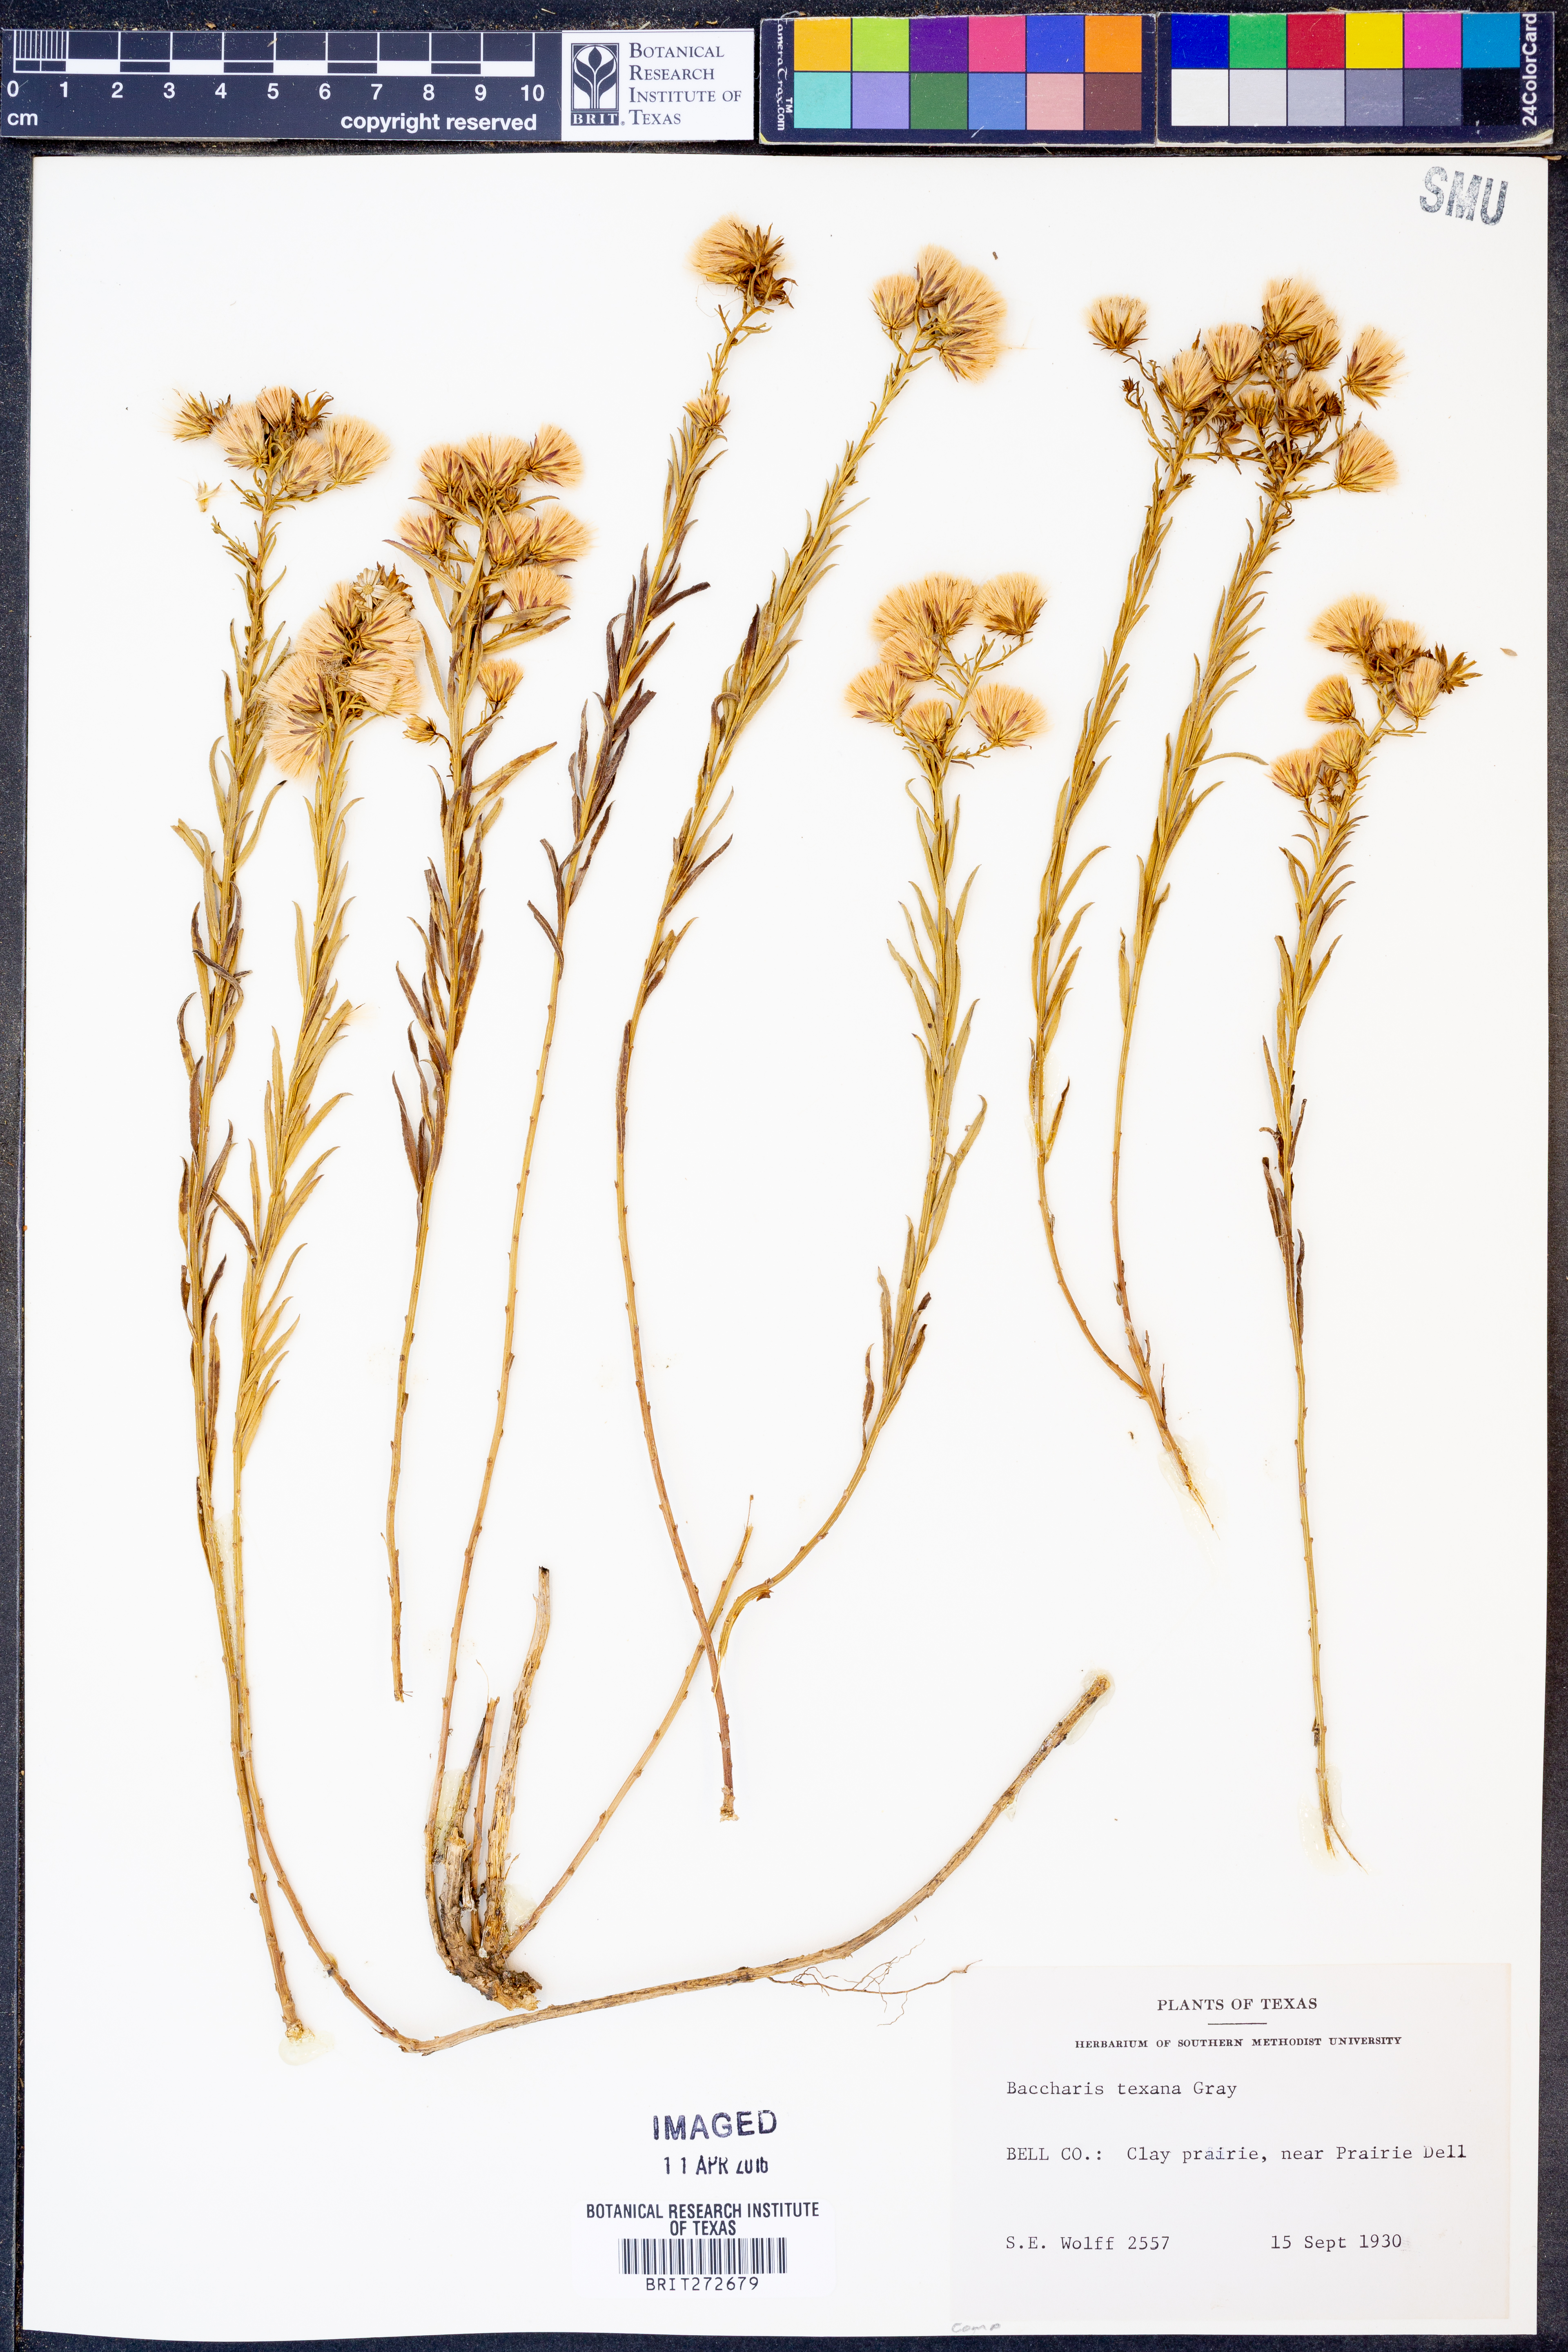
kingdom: Plantae
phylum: Tracheophyta
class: Magnoliopsida
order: Asterales
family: Asteraceae
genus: Baccharis
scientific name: Baccharis texana
